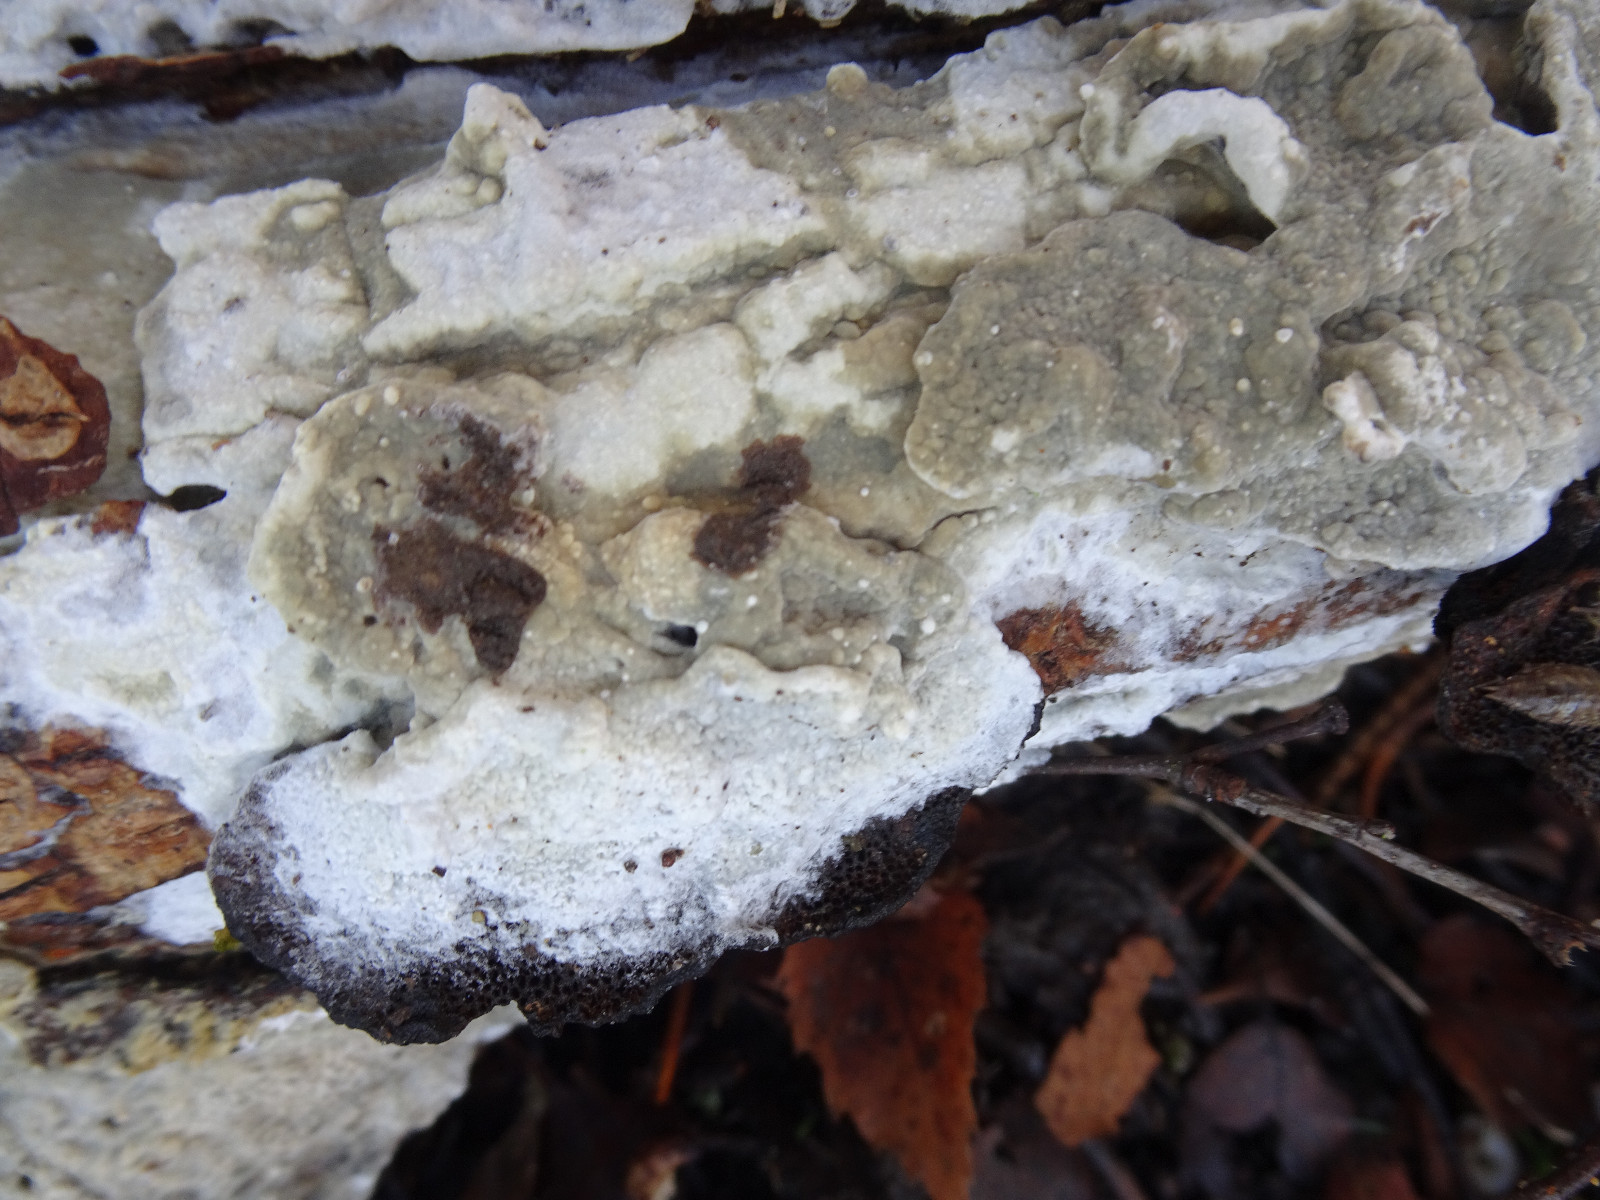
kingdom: Fungi
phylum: Basidiomycota
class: Agaricomycetes
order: Corticiales
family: Corticiaceae
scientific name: Corticiaceae
